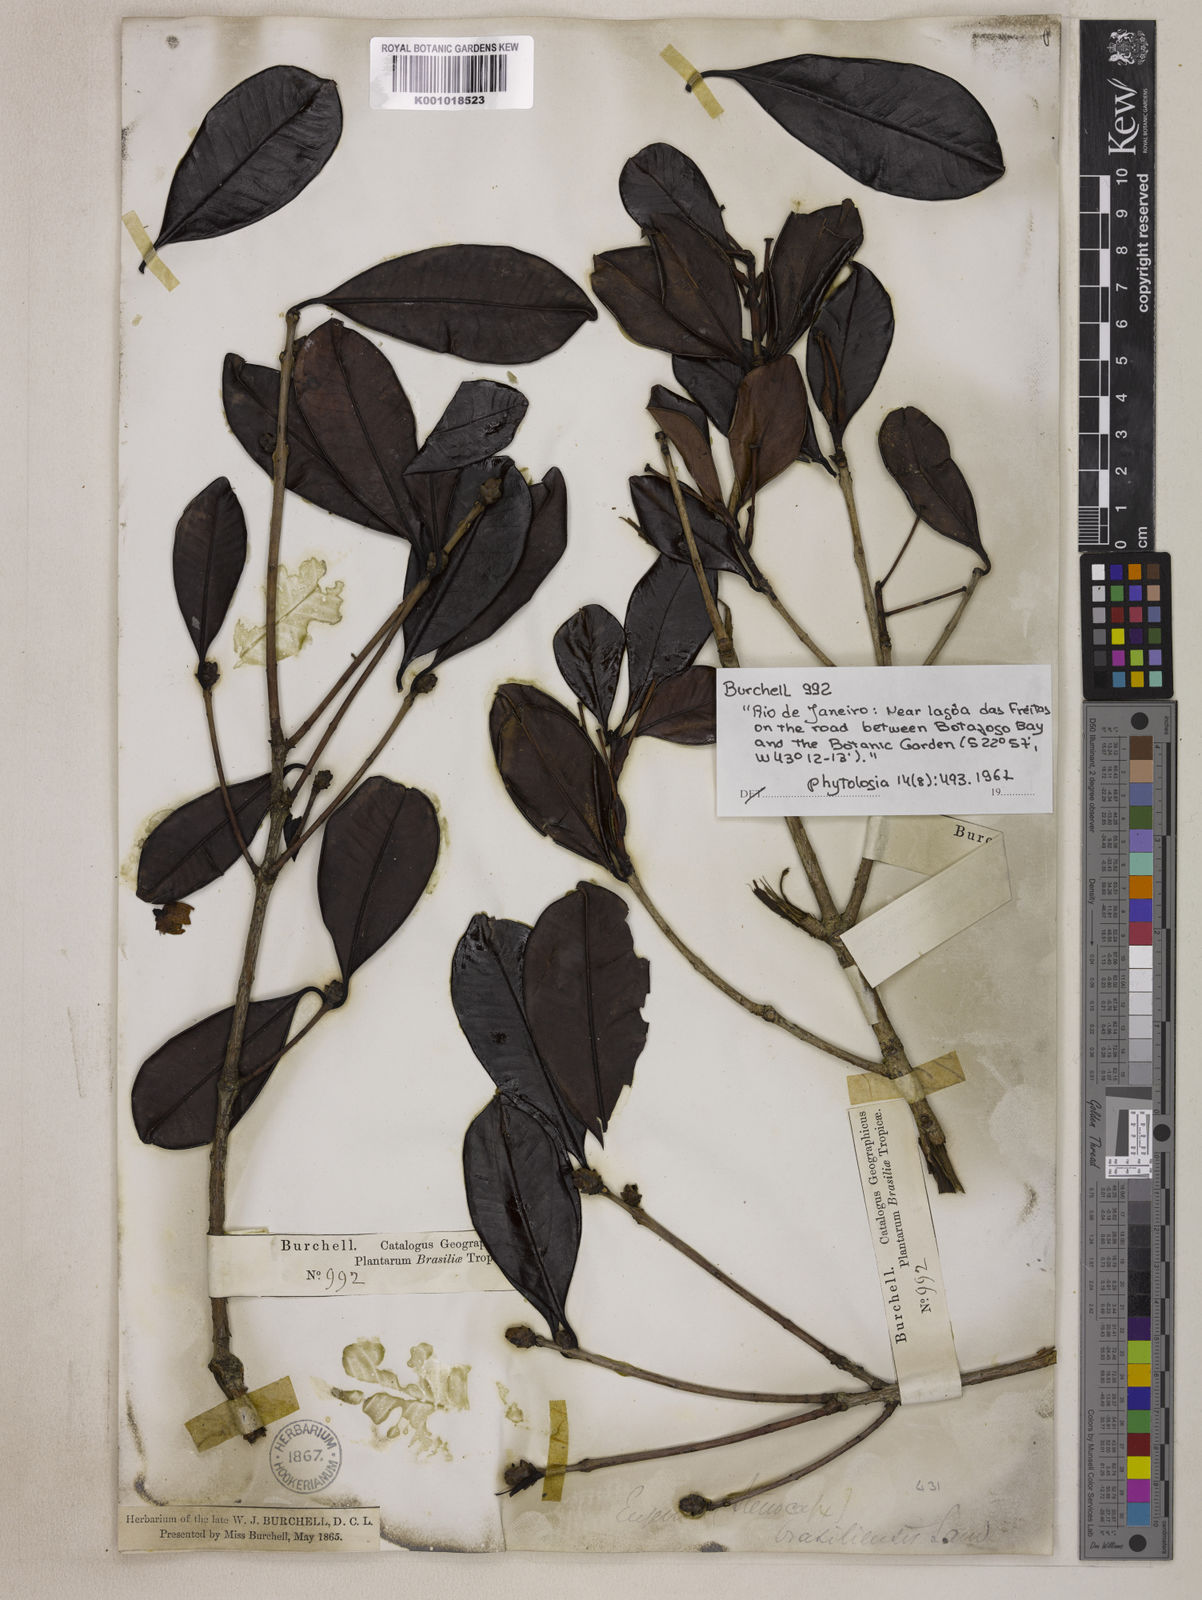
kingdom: Plantae
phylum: Tracheophyta
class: Magnoliopsida
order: Myrtales
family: Myrtaceae
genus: Eugenia
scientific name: Eugenia brasiliensis
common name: Grumichama
